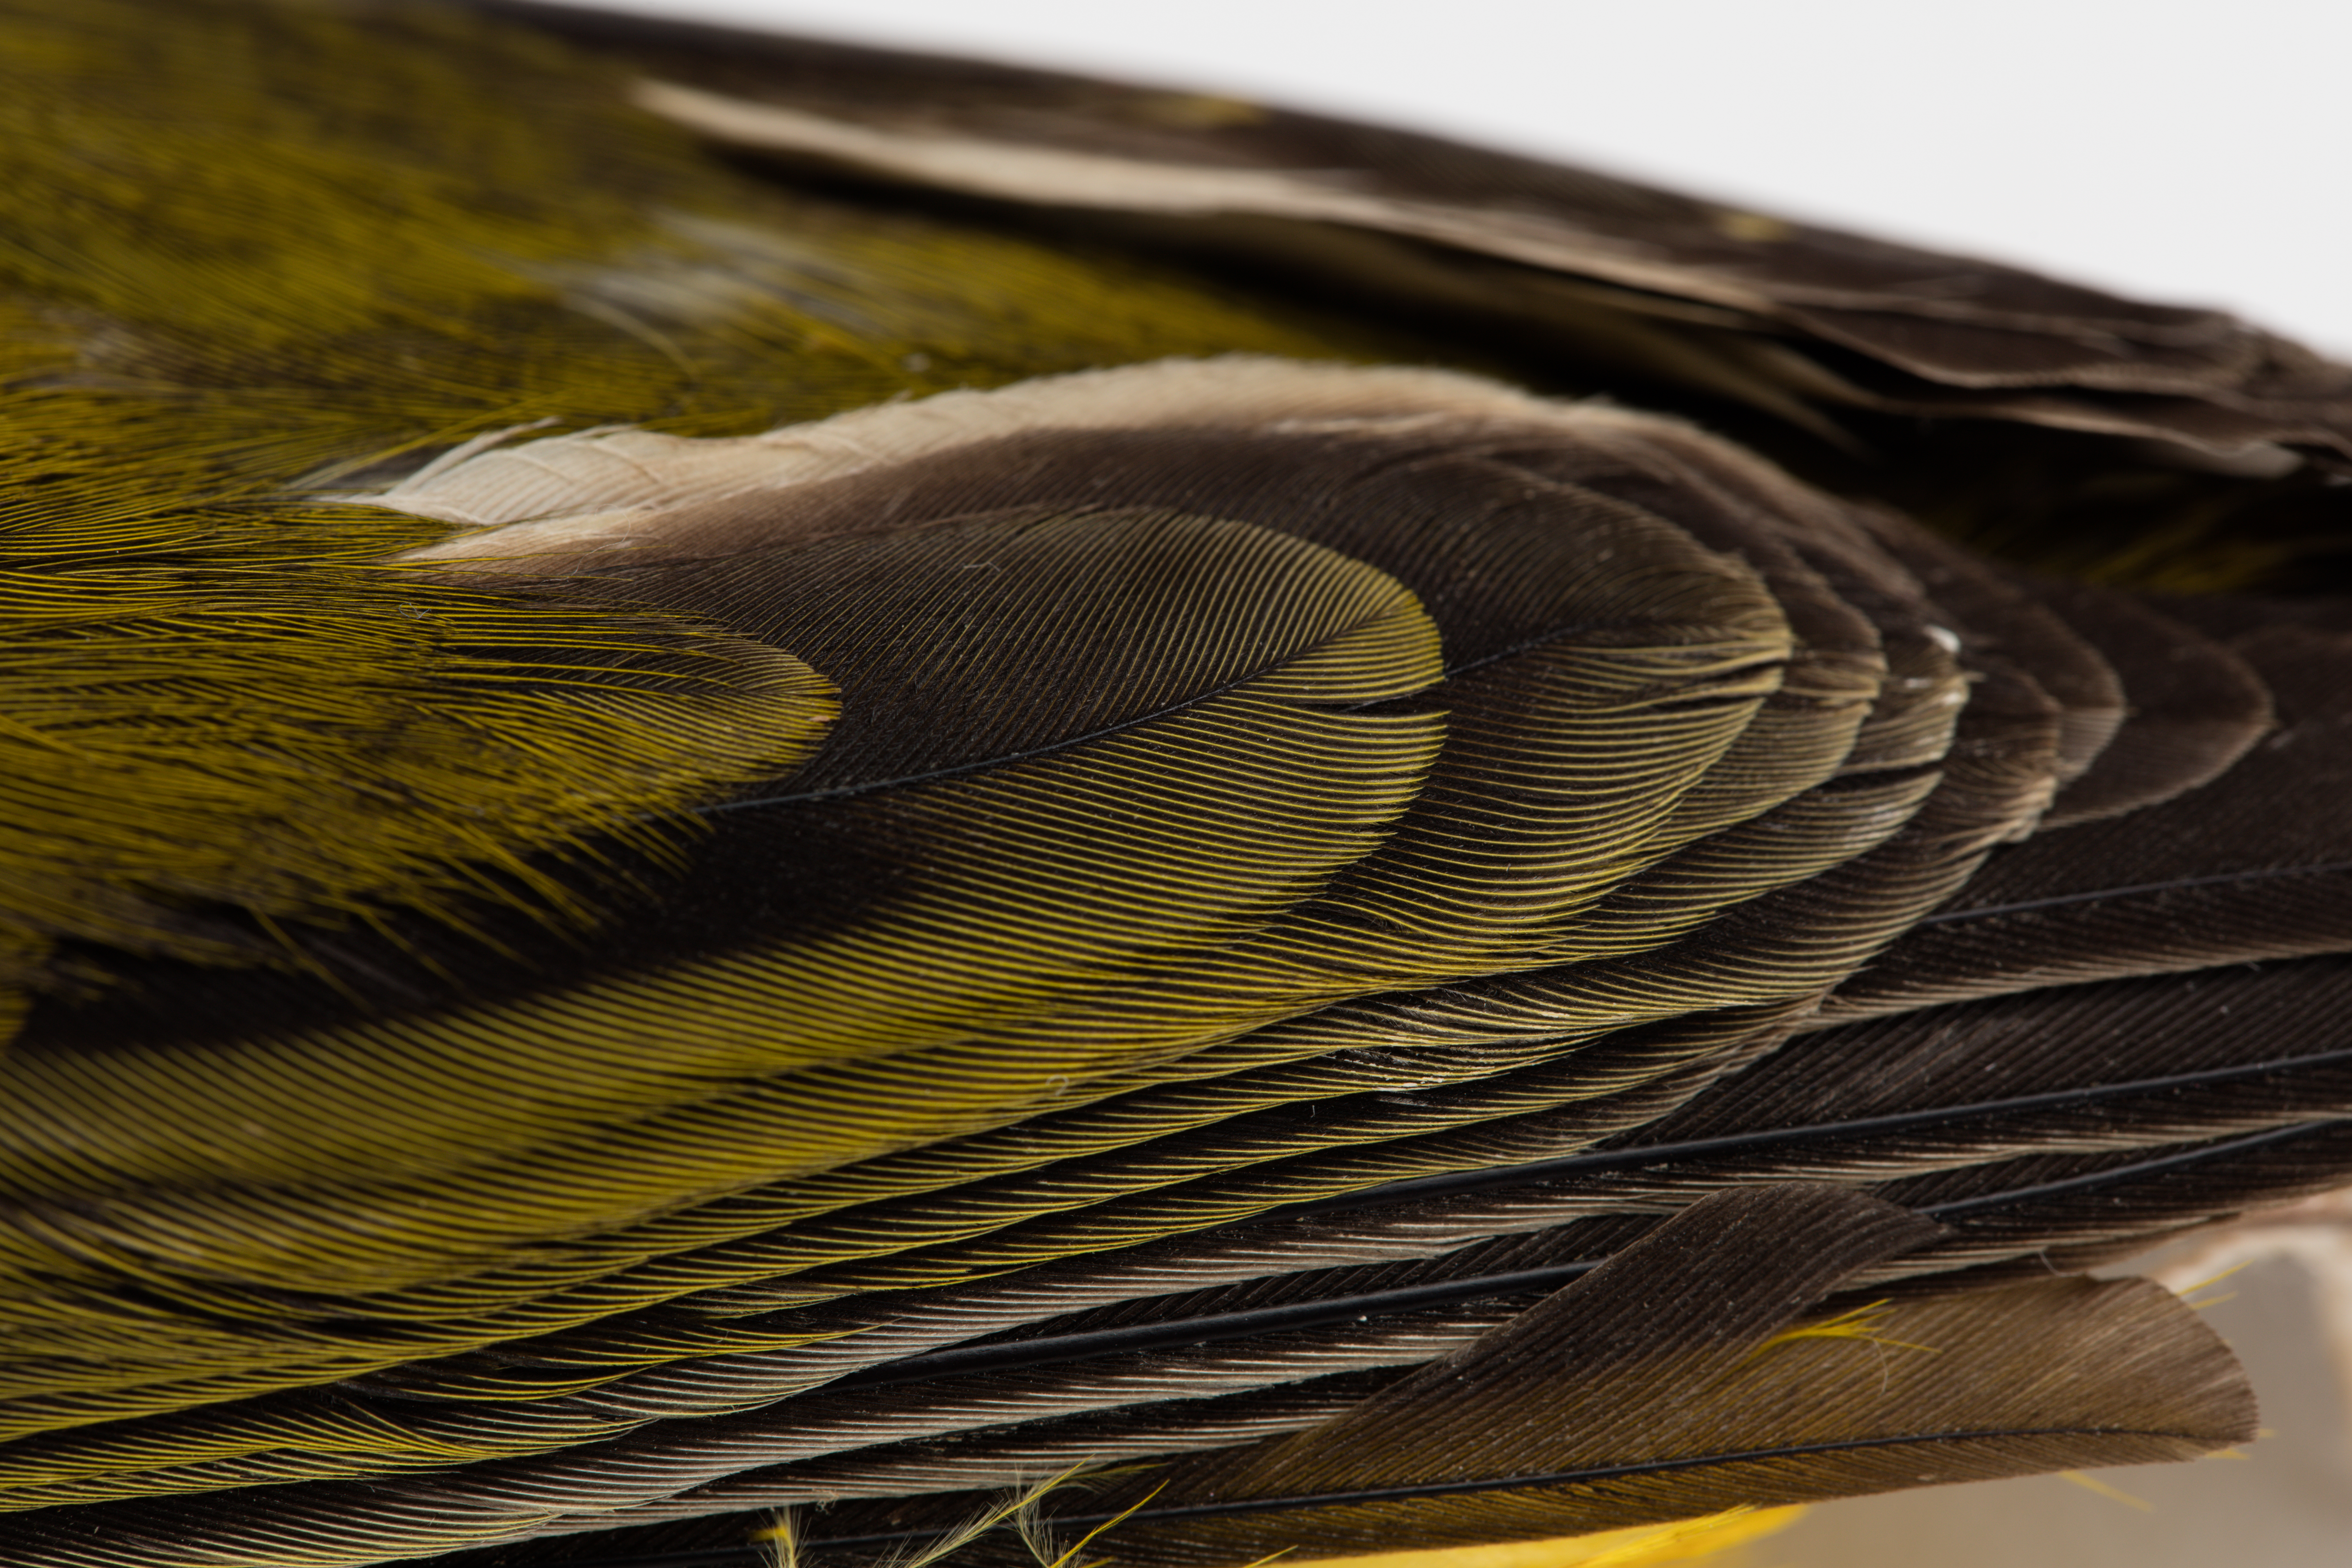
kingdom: Animalia
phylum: Chordata
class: Aves
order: Passeriformes
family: Pachycephalidae
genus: Pachycephala
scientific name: Pachycephala jacquinoti
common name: Tongan whistler
